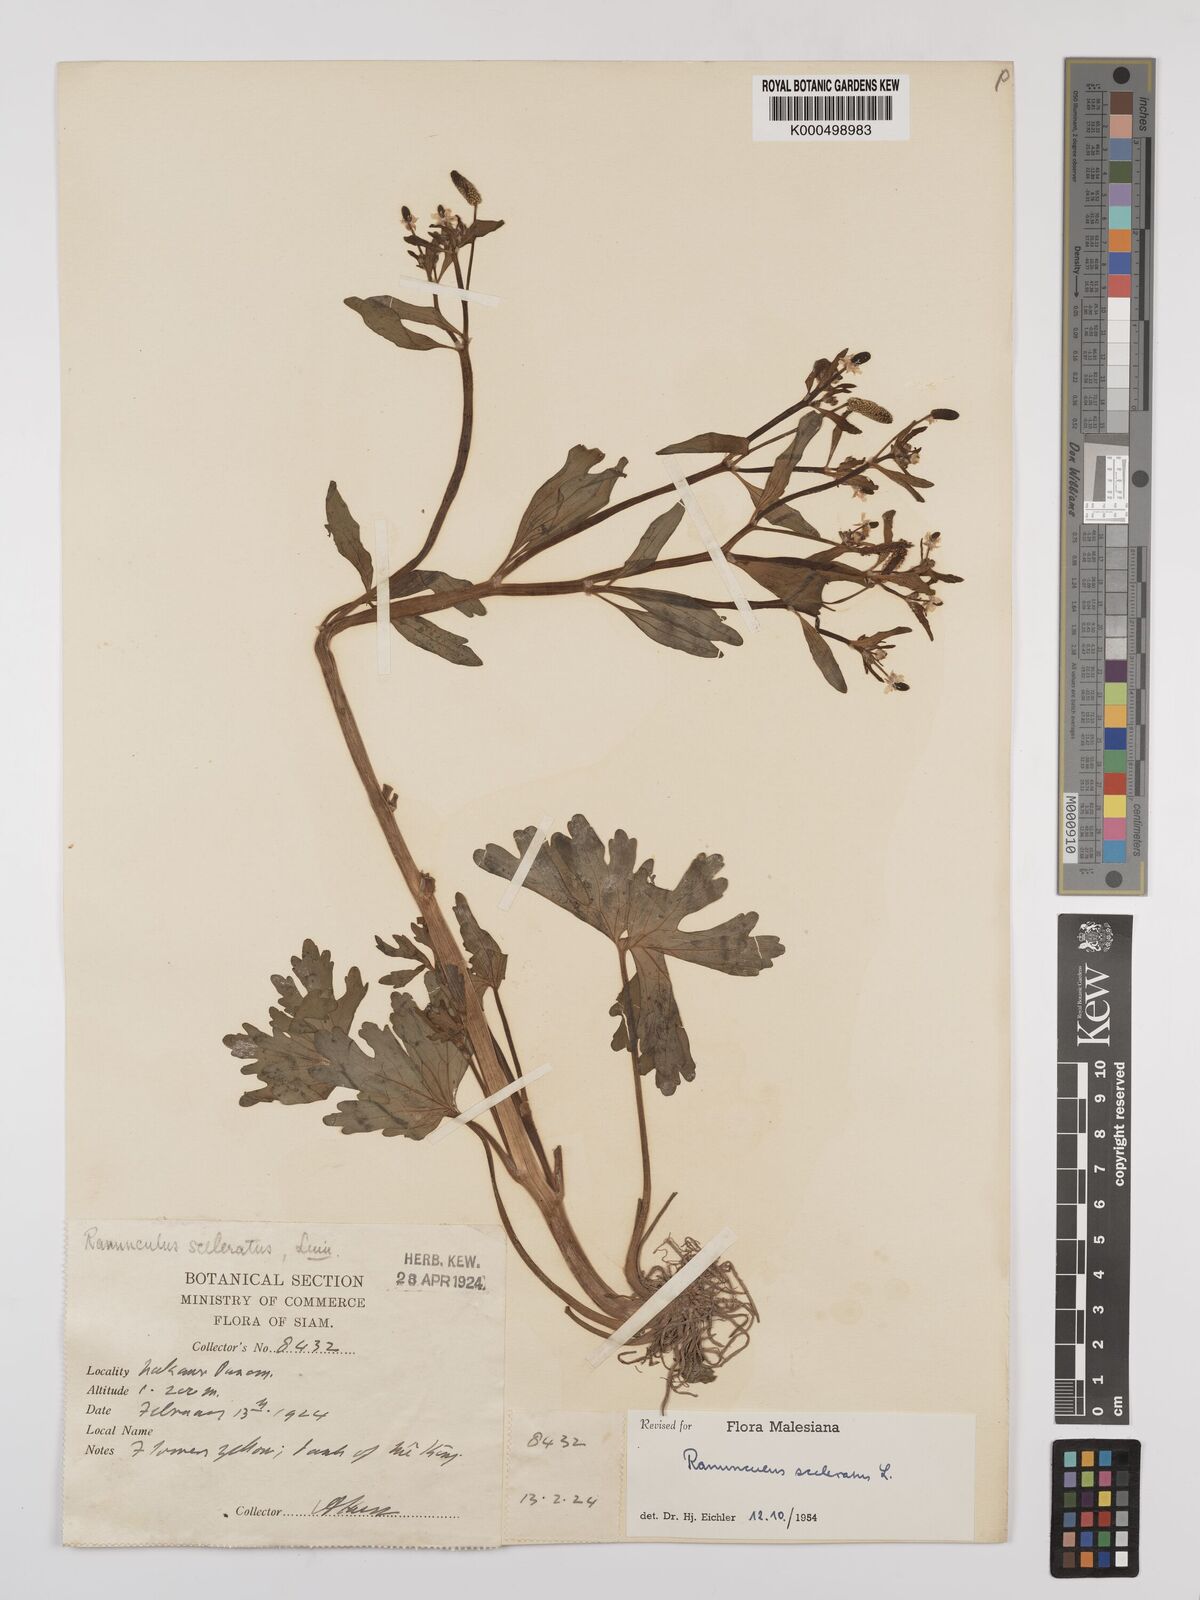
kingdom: Plantae
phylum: Tracheophyta
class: Magnoliopsida
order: Ranunculales
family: Ranunculaceae
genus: Ranunculus
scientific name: Ranunculus sceleratus
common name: Celery-leaved buttercup
